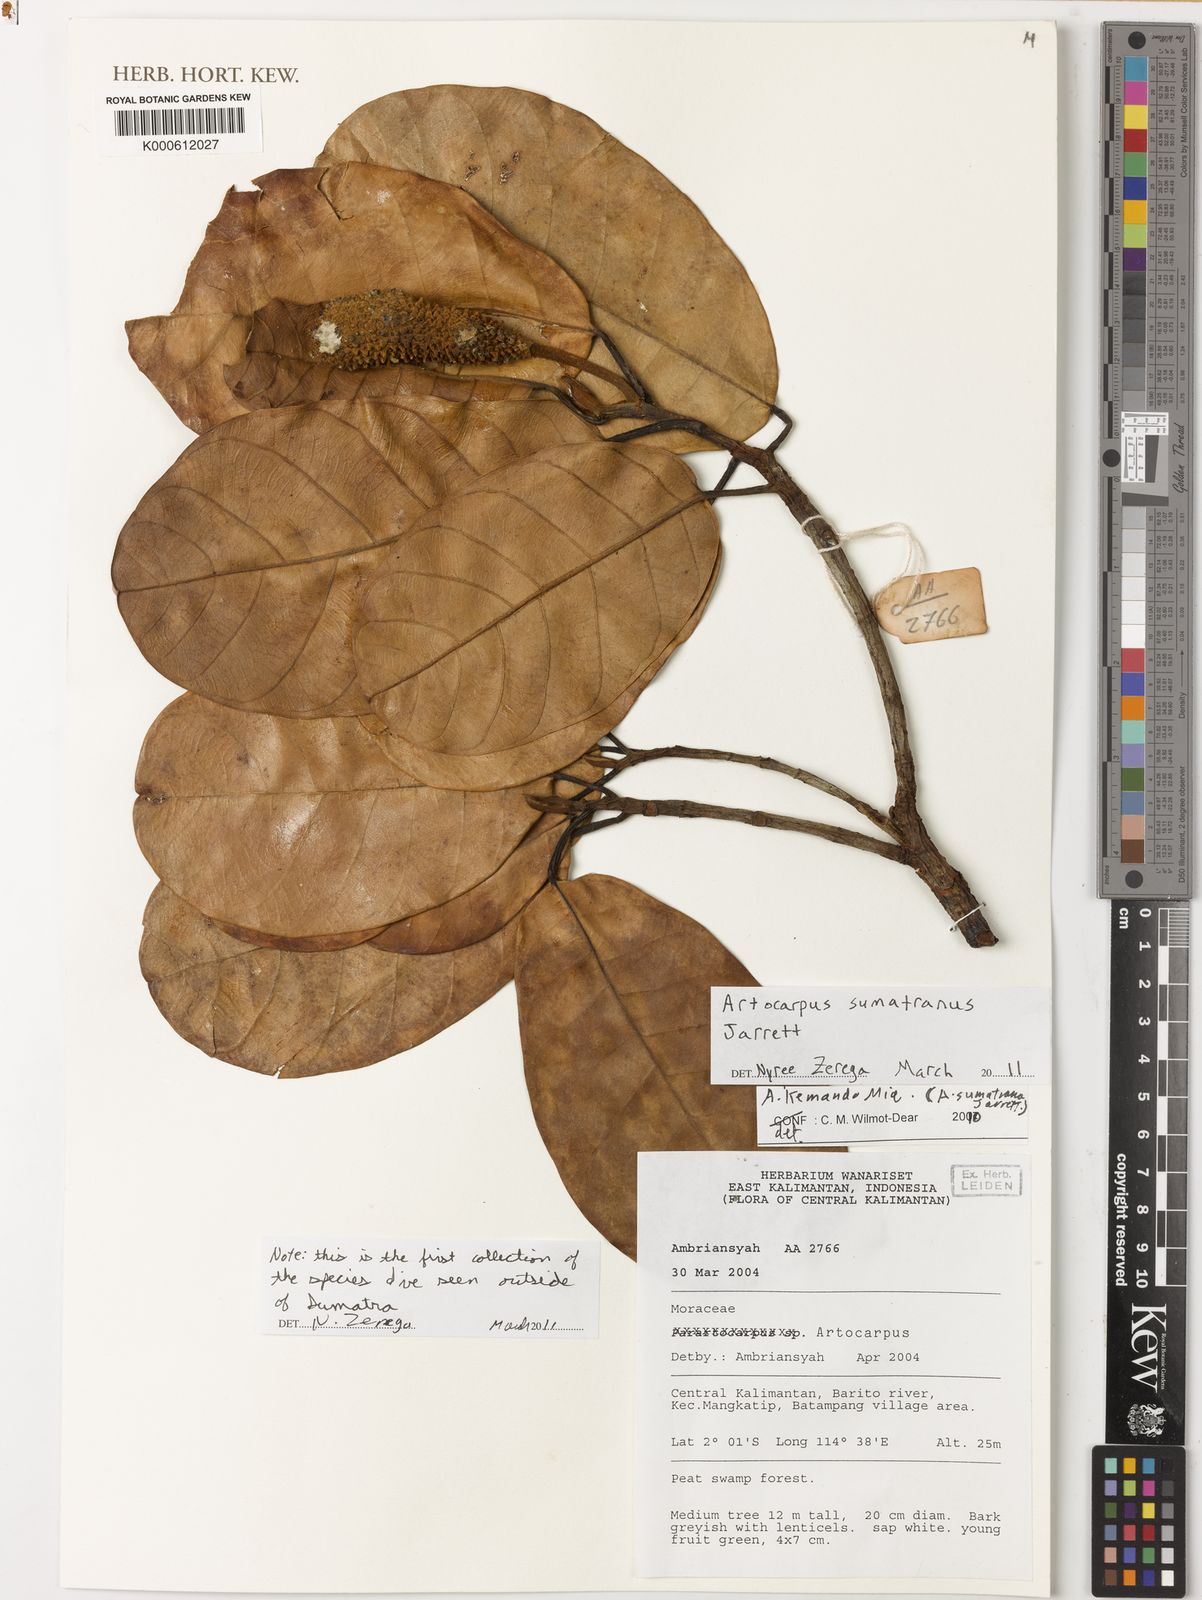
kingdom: Plantae
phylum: Tracheophyta
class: Magnoliopsida
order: Rosales
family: Moraceae
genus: Artocarpus
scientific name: Artocarpus kemando
